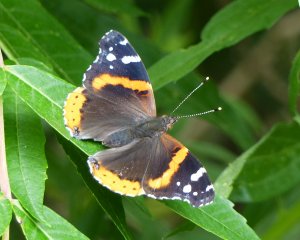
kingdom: Animalia
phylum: Arthropoda
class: Insecta
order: Lepidoptera
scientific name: Lepidoptera
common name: Butterflies
